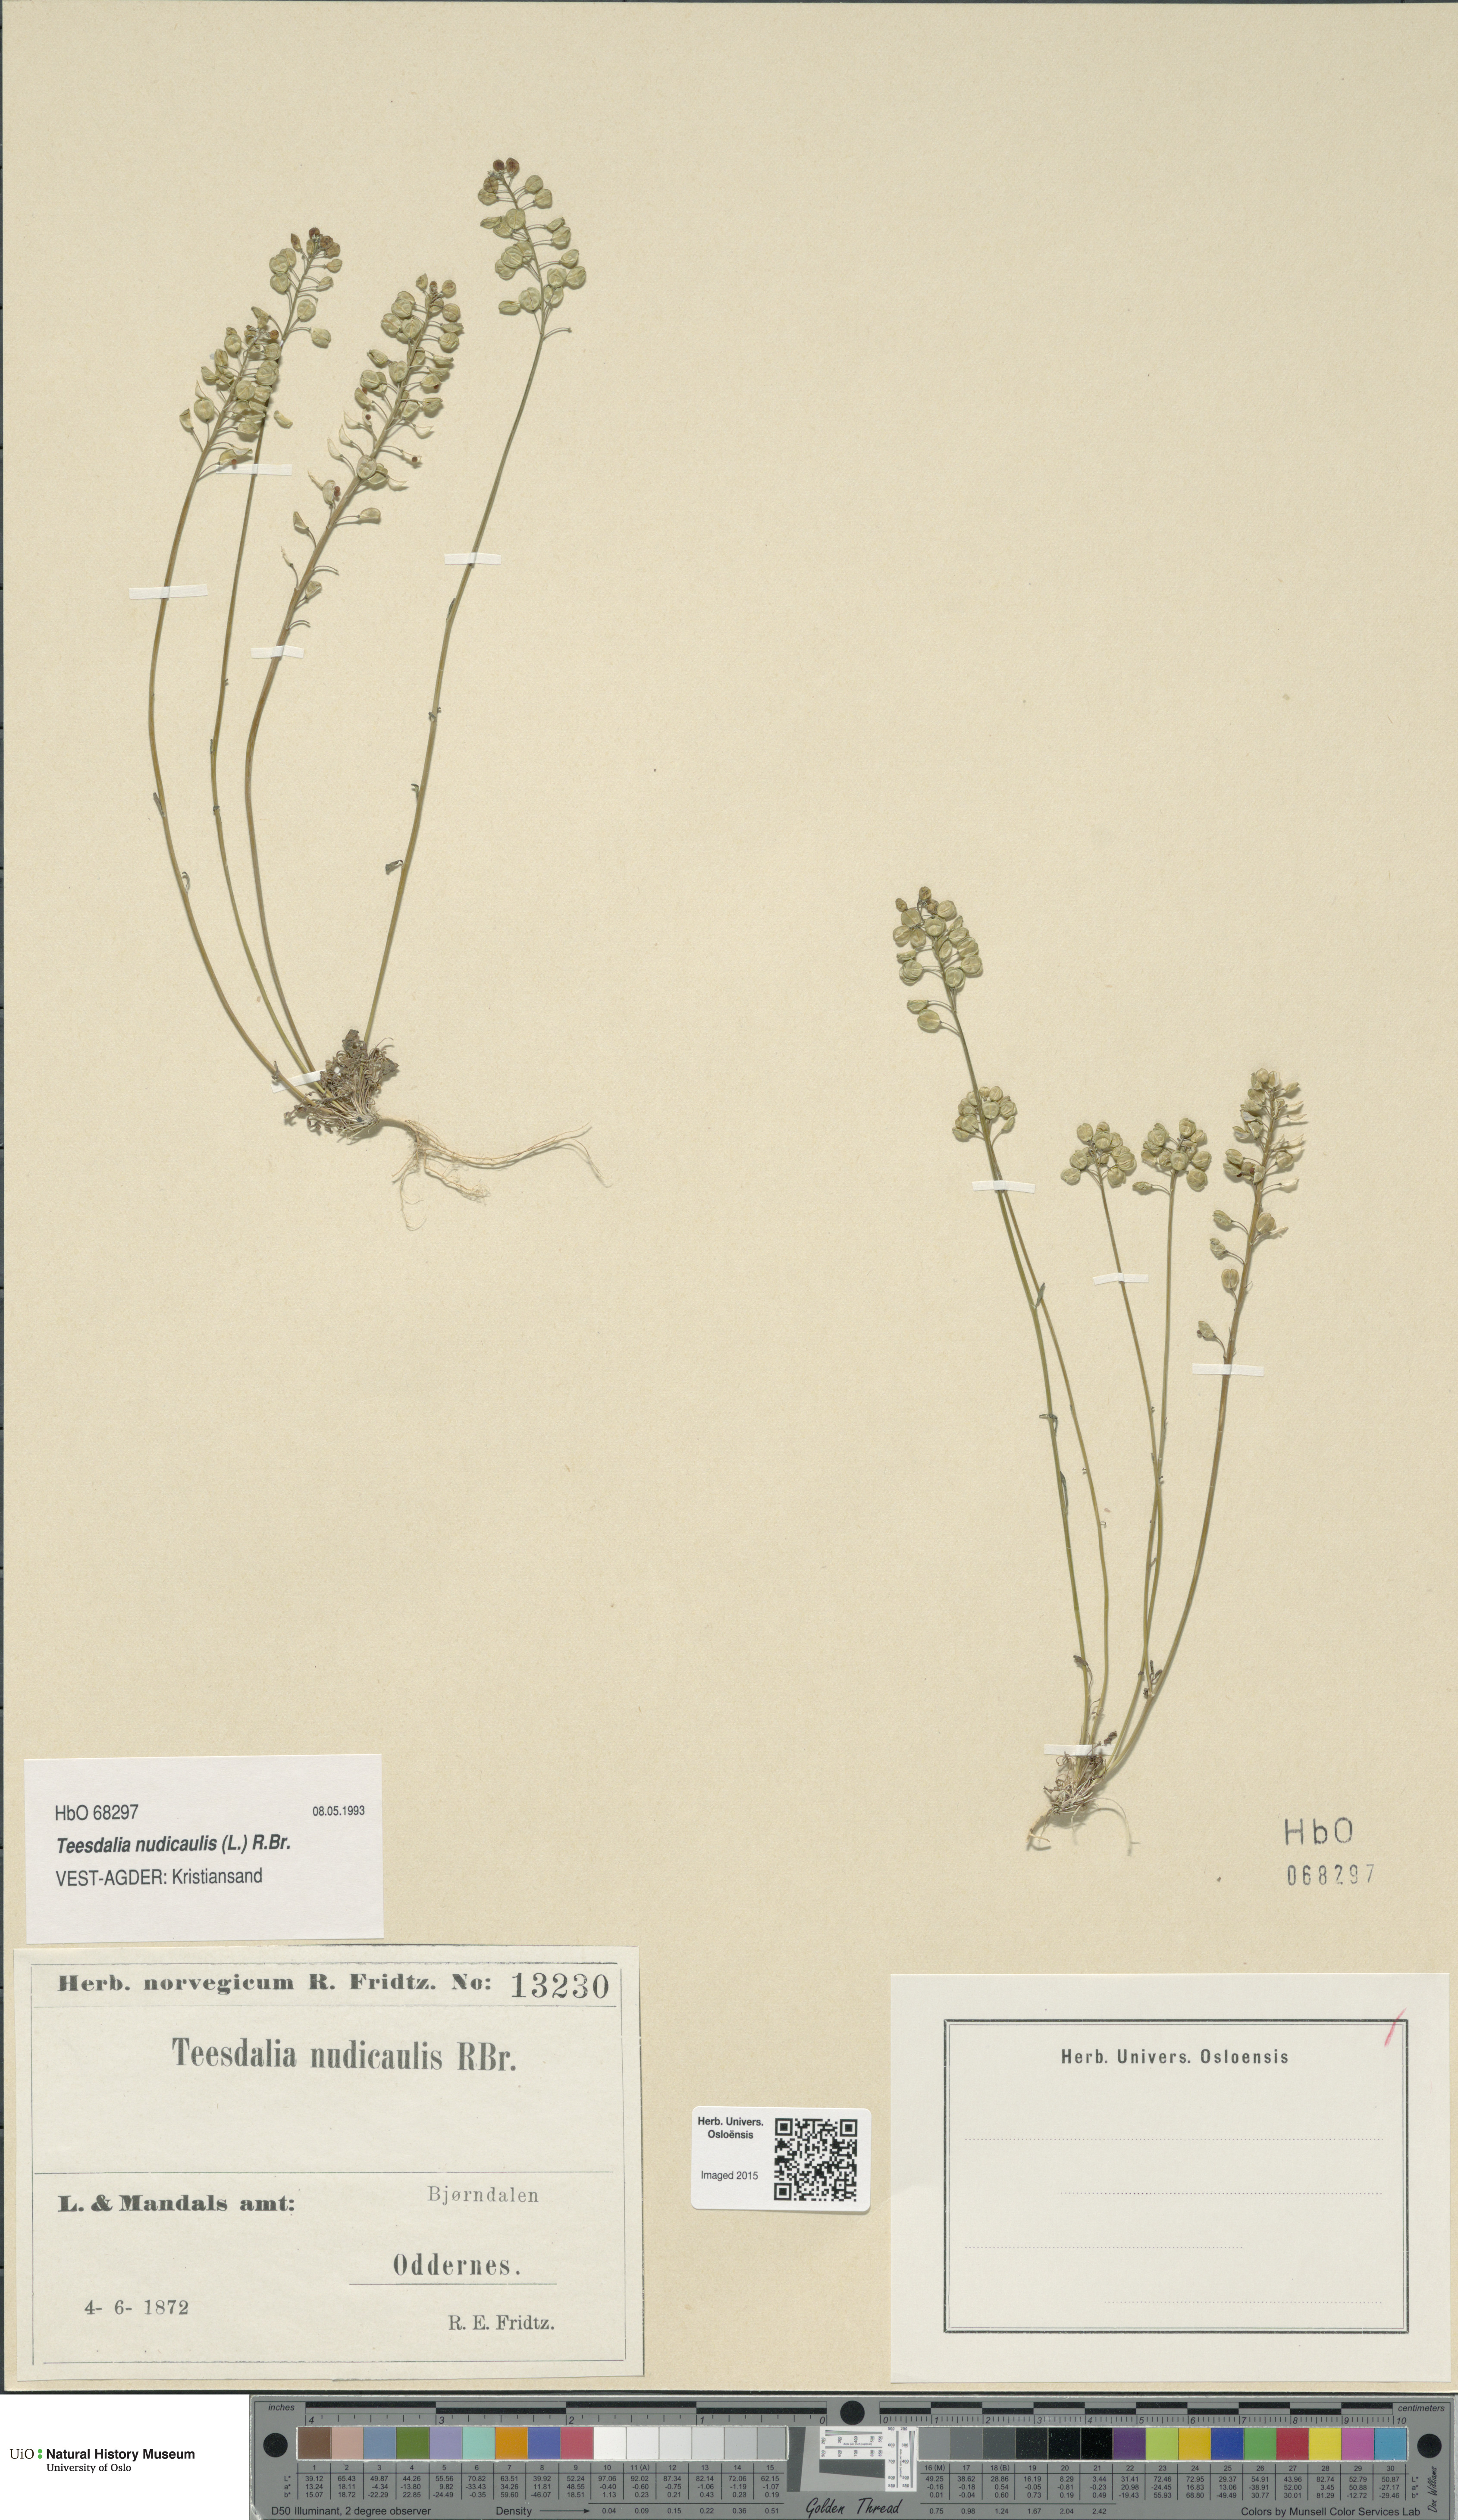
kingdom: Plantae
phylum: Tracheophyta
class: Magnoliopsida
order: Brassicales
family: Brassicaceae
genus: Teesdalia
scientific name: Teesdalia nudicaulis
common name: Shepherd's cress
